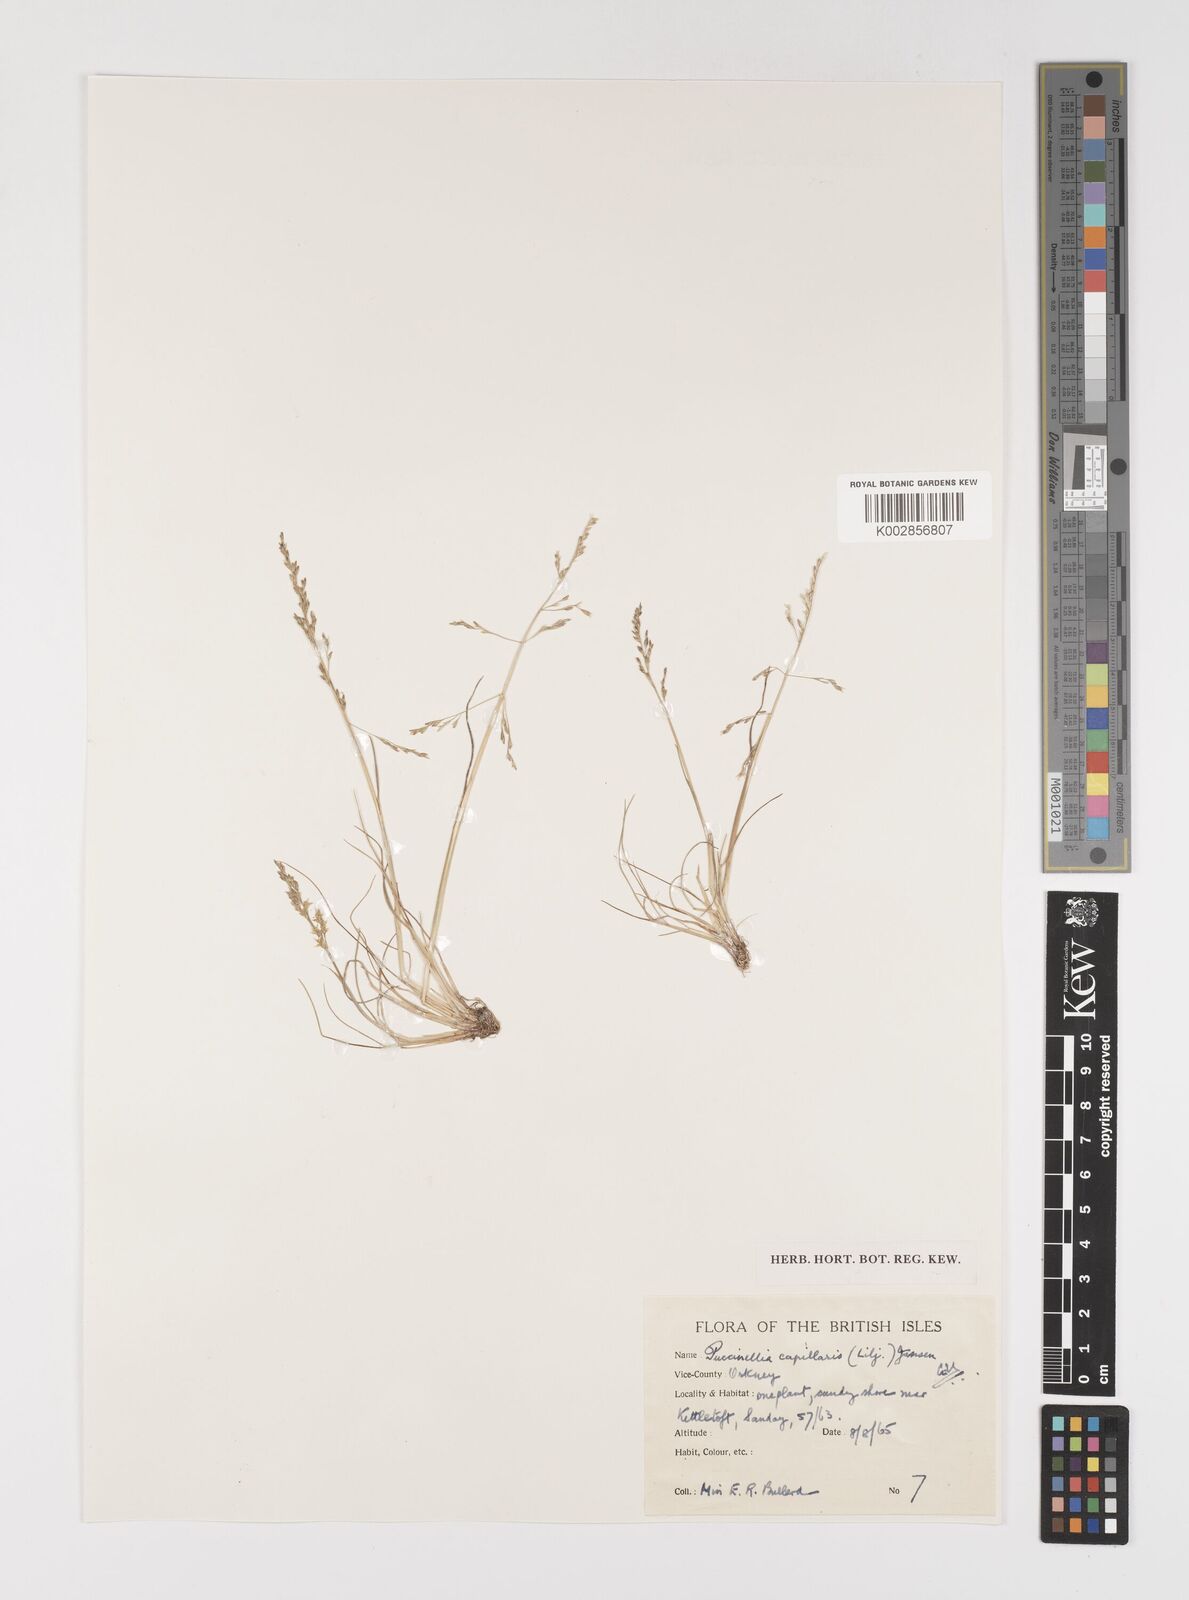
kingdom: Plantae
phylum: Tracheophyta
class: Liliopsida
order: Poales
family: Poaceae
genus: Puccinellia
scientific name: Puccinellia distans
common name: Weeping alkaligrass
